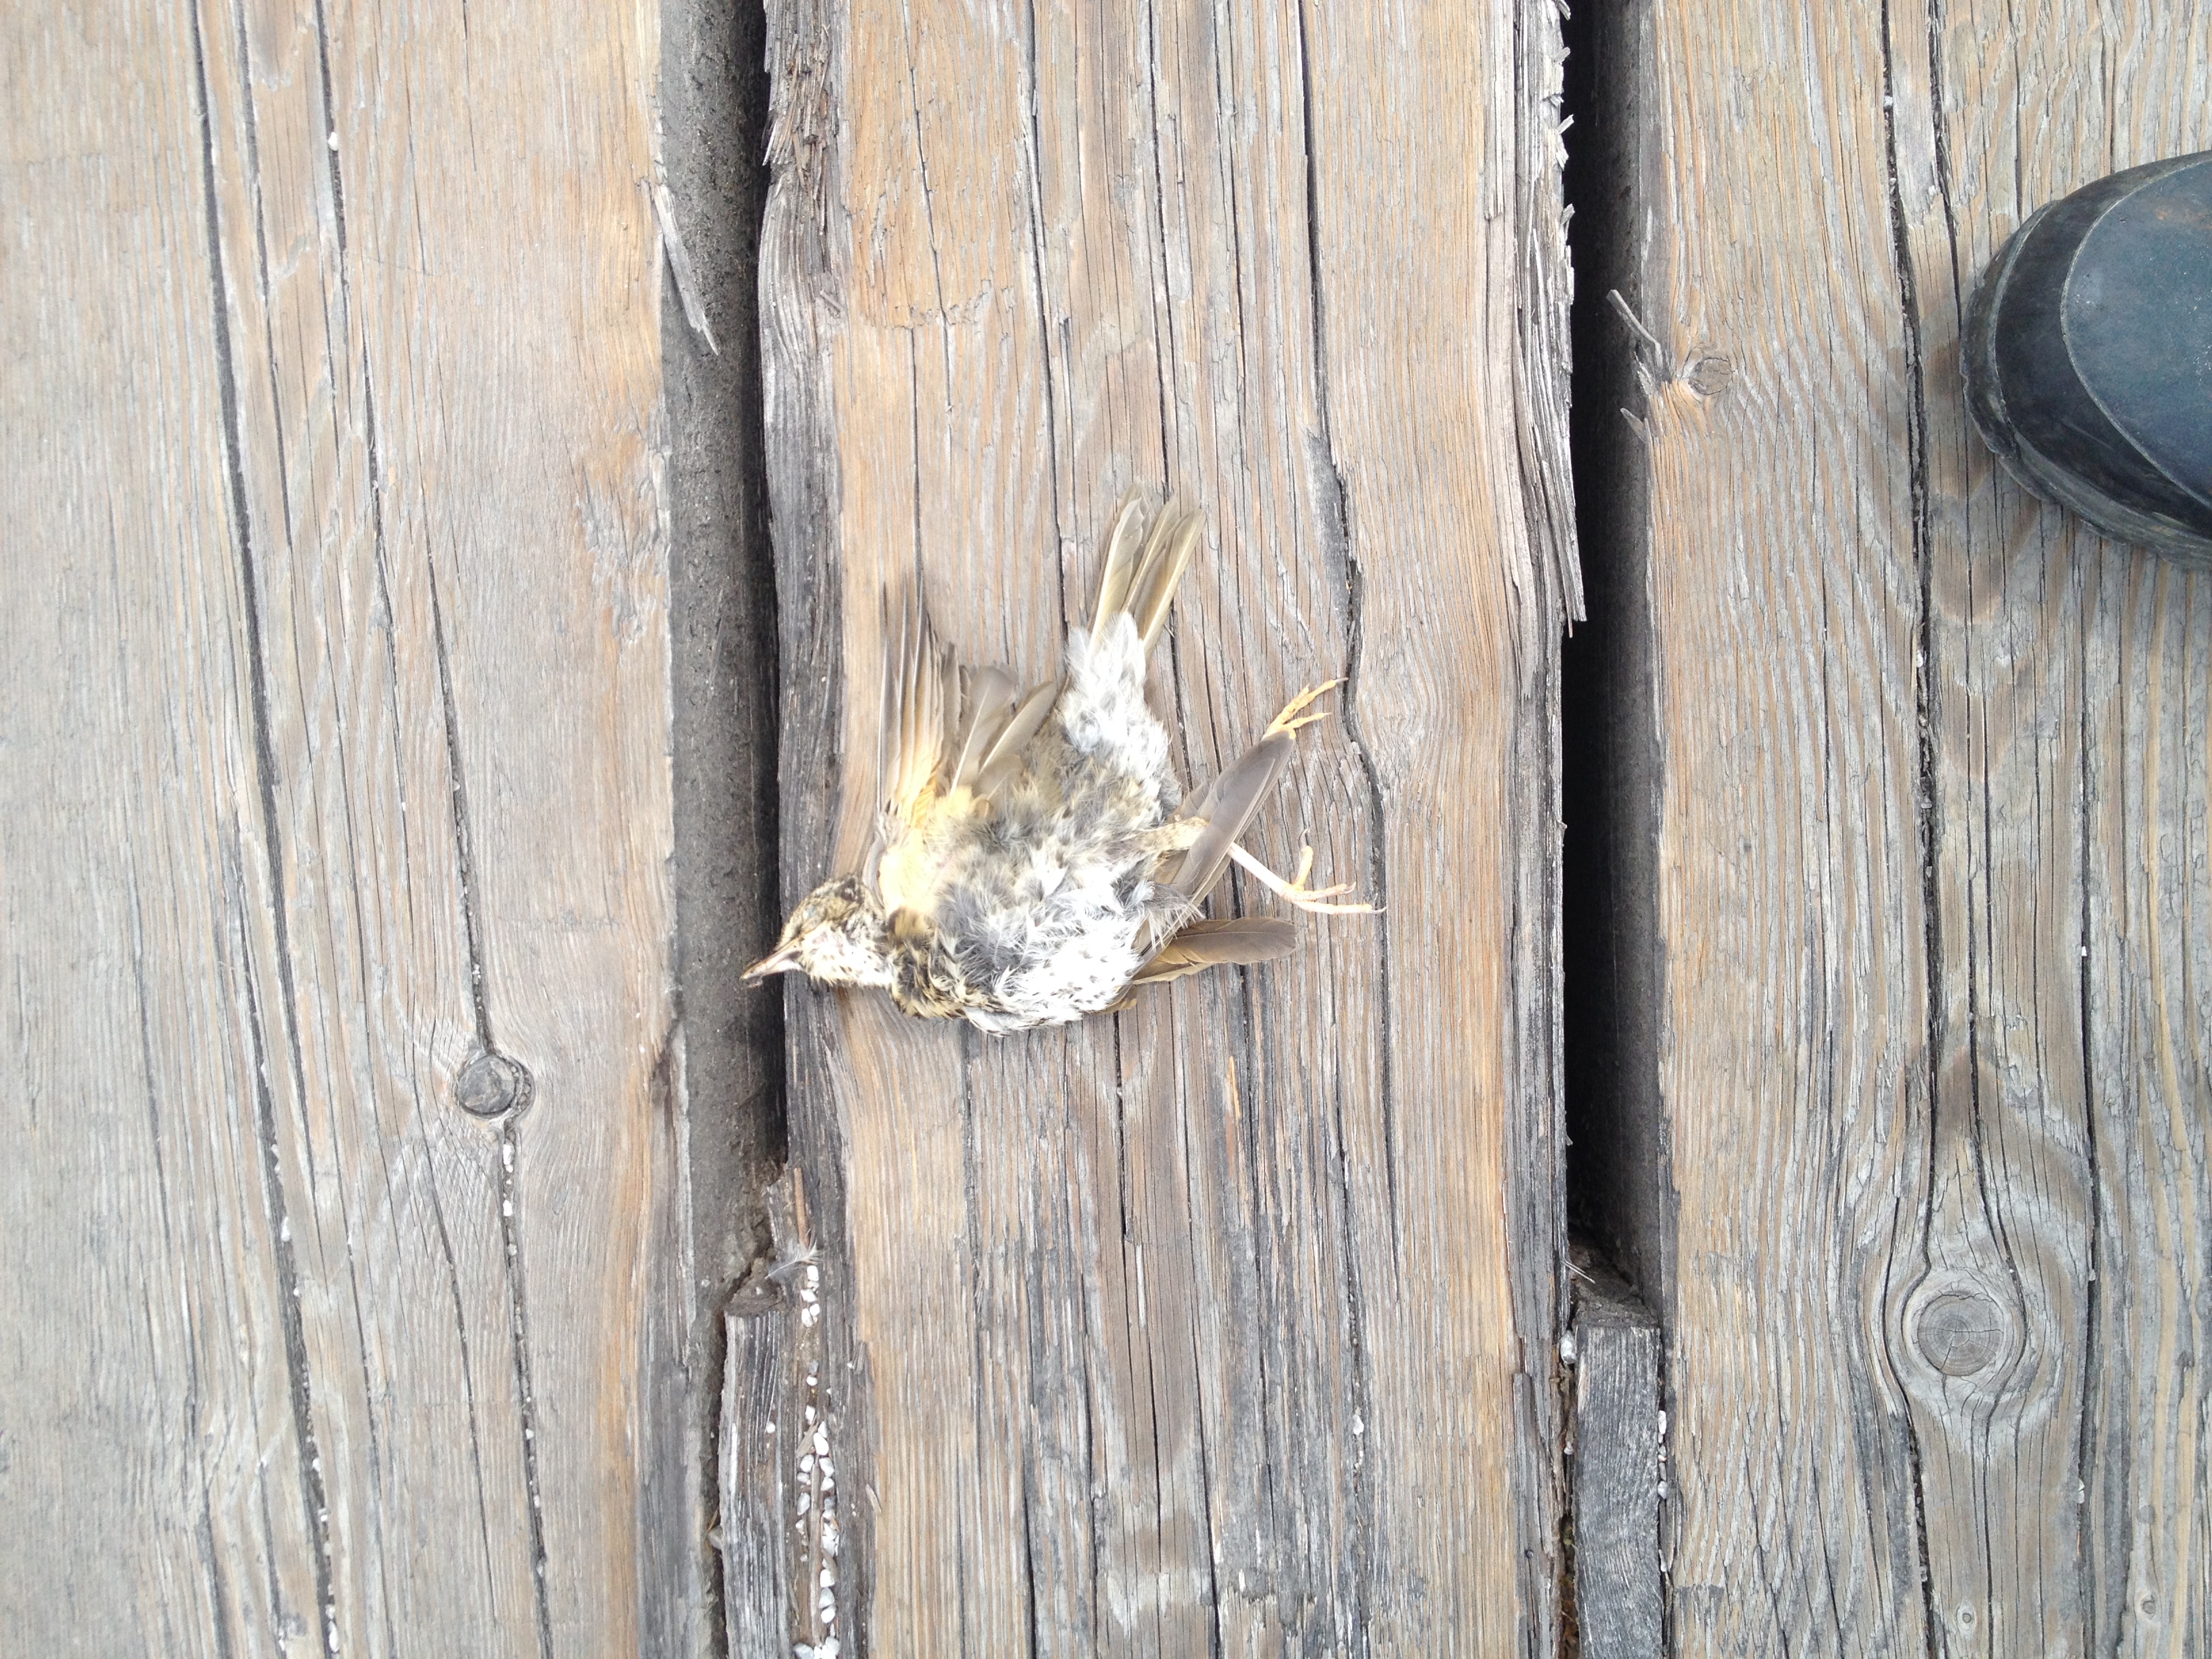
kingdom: Animalia
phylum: Chordata
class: Aves
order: Passeriformes
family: Turdidae
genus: Turdus
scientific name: Turdus philomelos
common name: Song thrush
